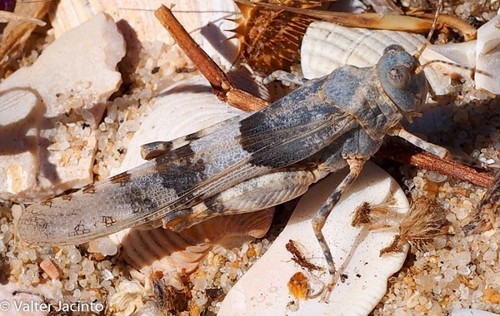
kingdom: Animalia
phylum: Arthropoda
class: Insecta
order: Orthoptera
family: Acrididae
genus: Sphingonotus
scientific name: Sphingonotus azurescens
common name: Azure sand grasshopper
